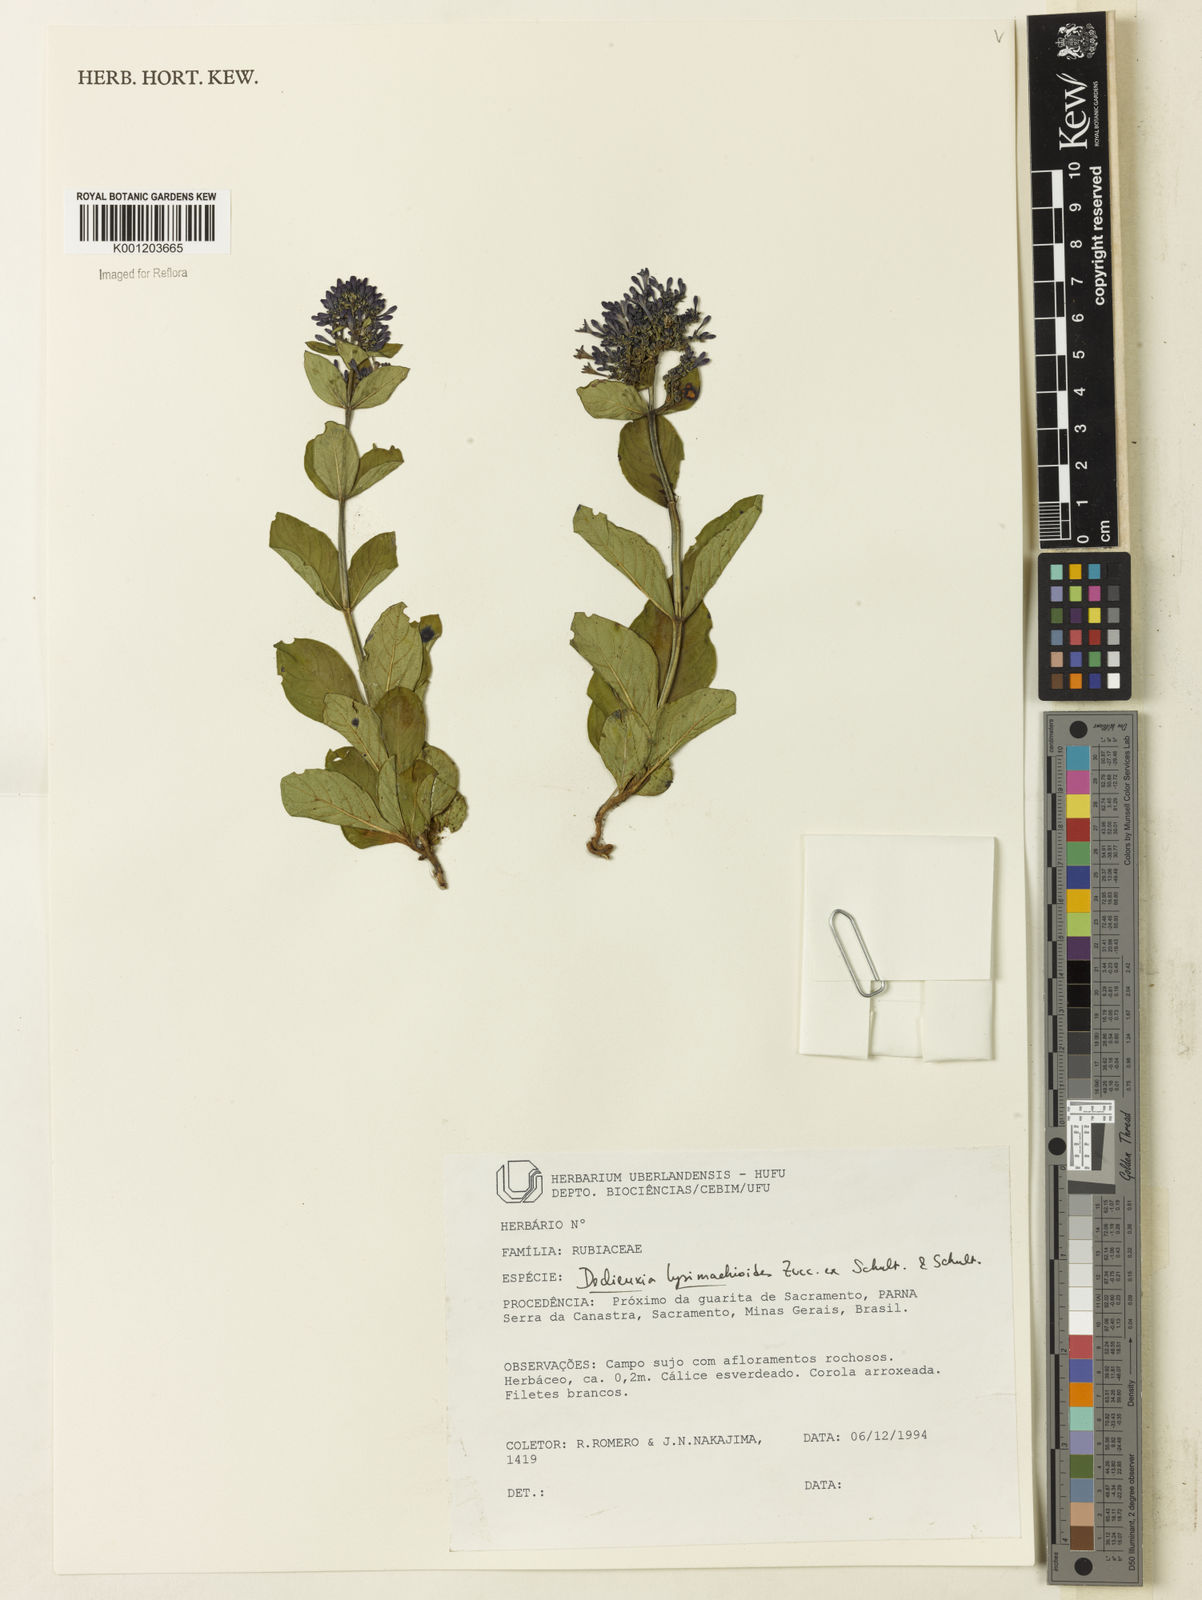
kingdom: Plantae
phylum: Tracheophyta
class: Magnoliopsida
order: Gentianales
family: Rubiaceae
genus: Declieuxia
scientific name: Declieuxia
